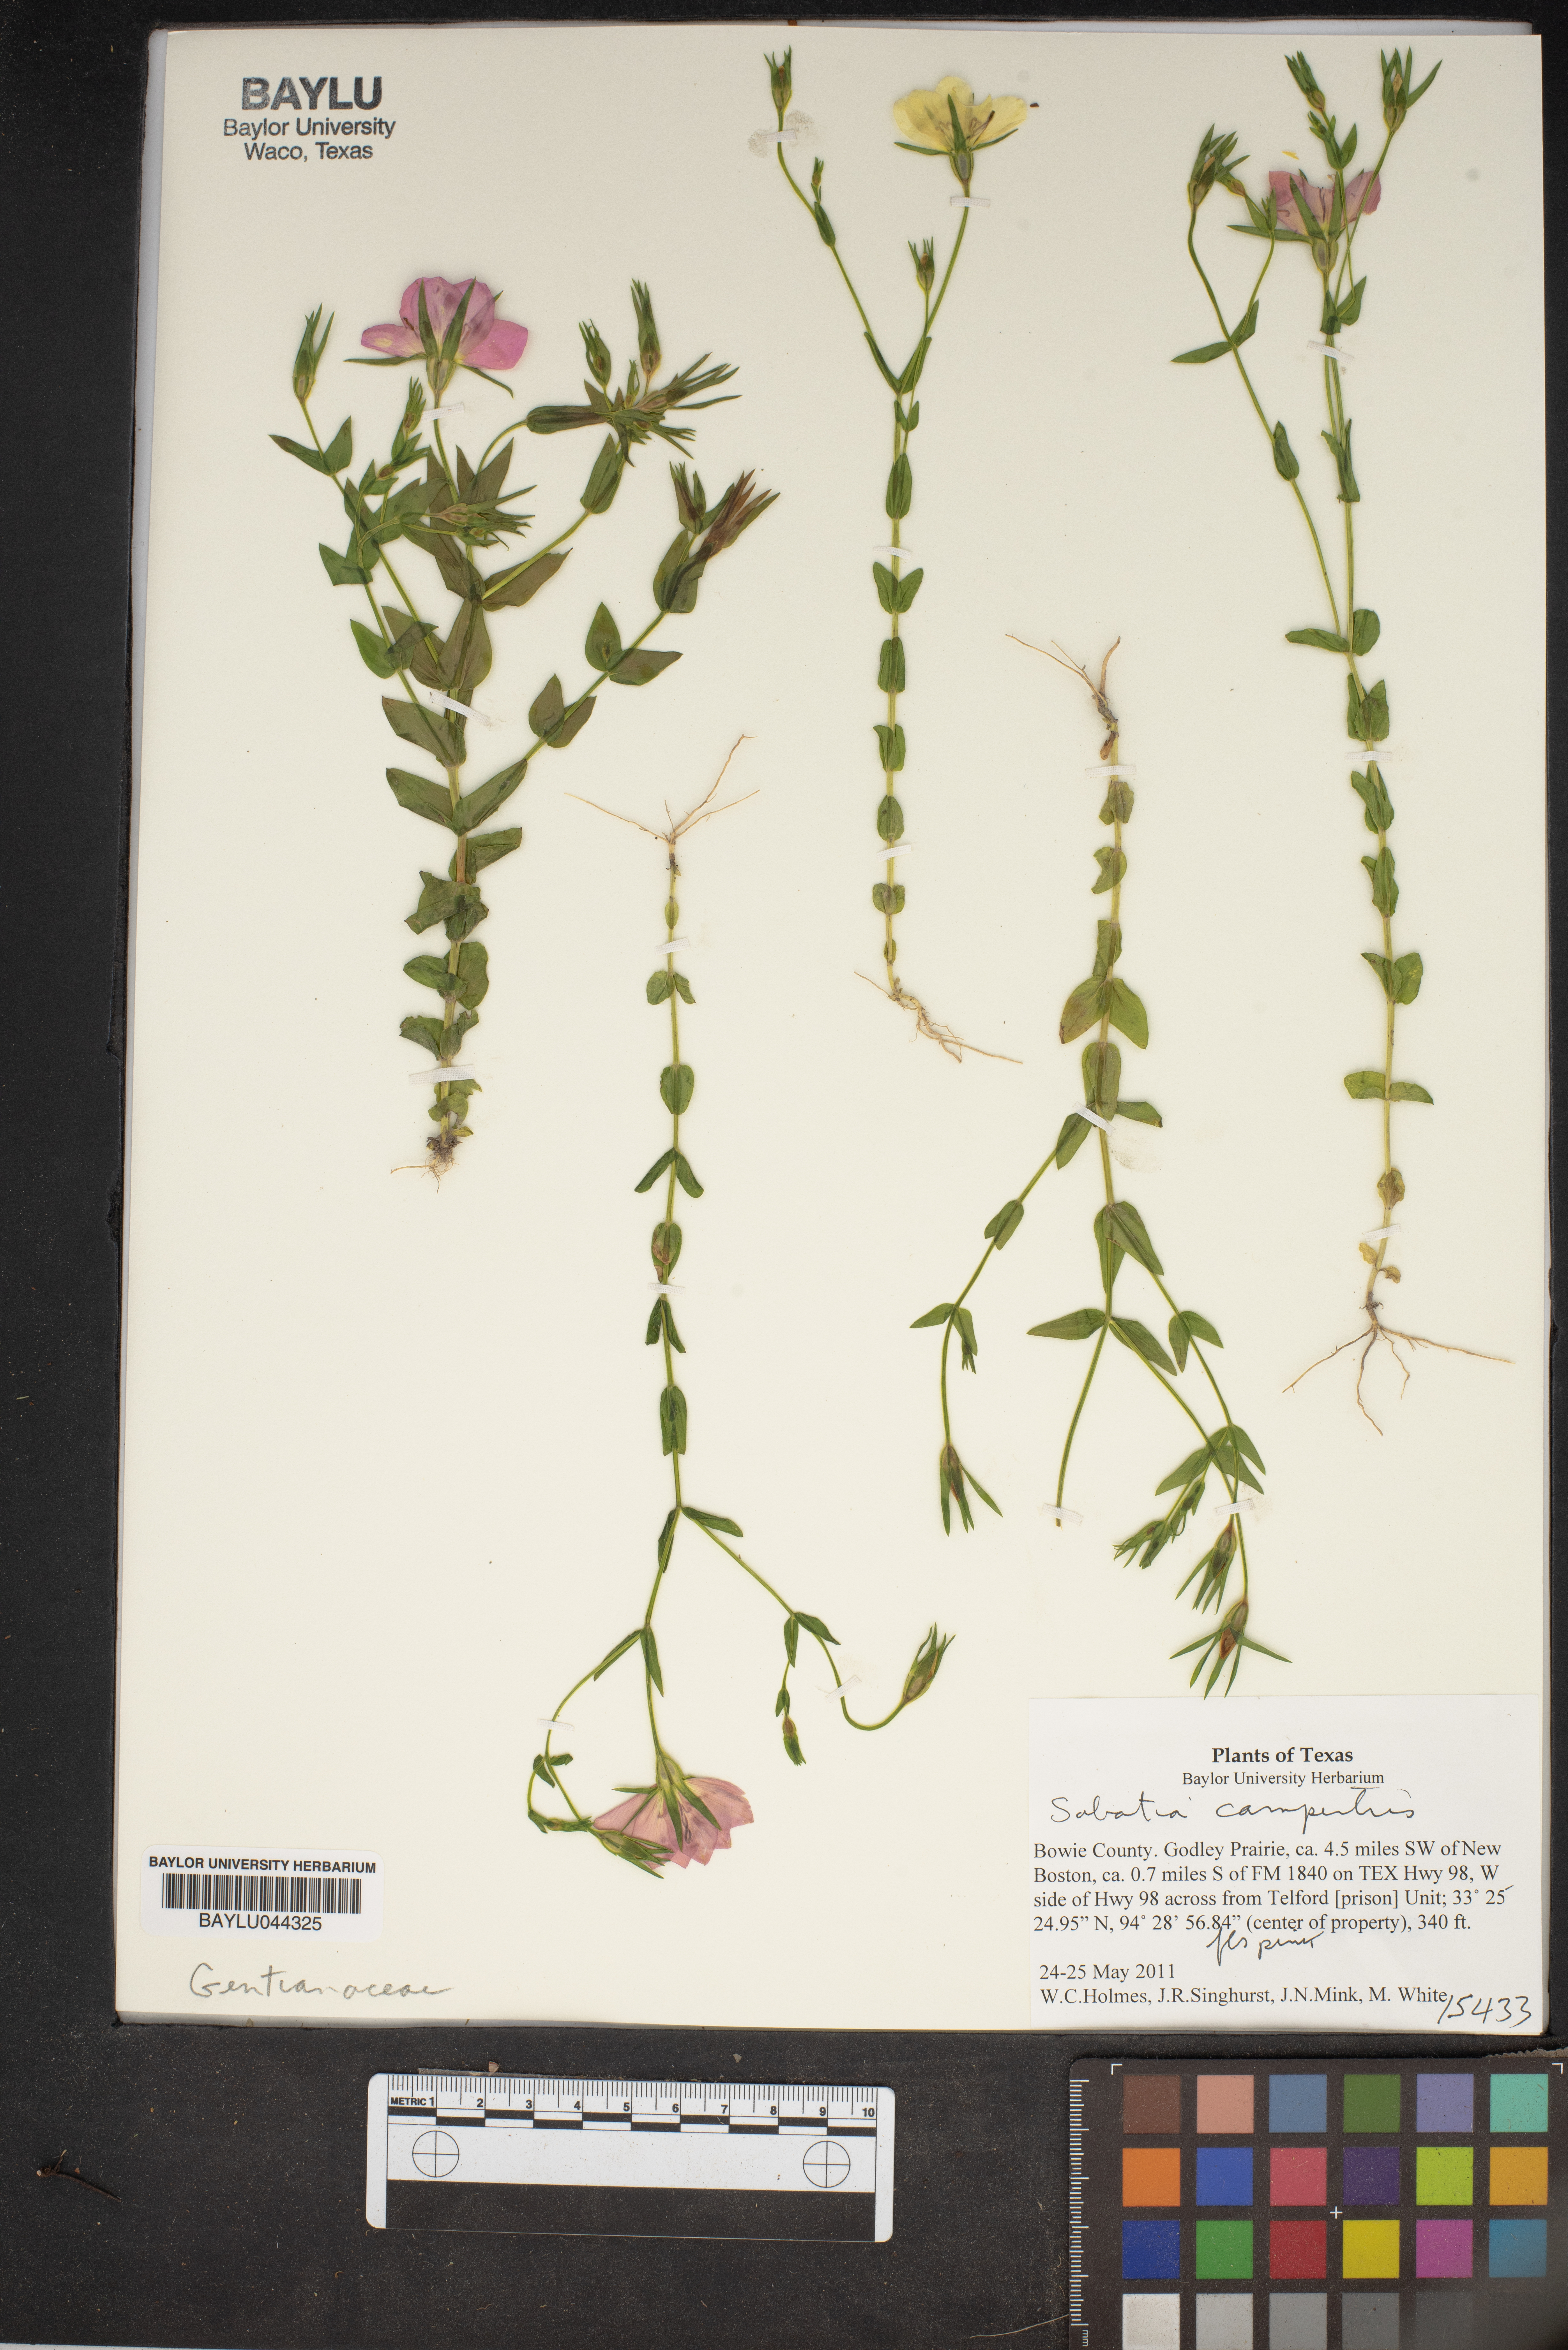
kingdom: Plantae
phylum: Tracheophyta
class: Magnoliopsida
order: Gentianales
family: Gentianaceae
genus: Sabatia
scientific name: Sabatia campestris
